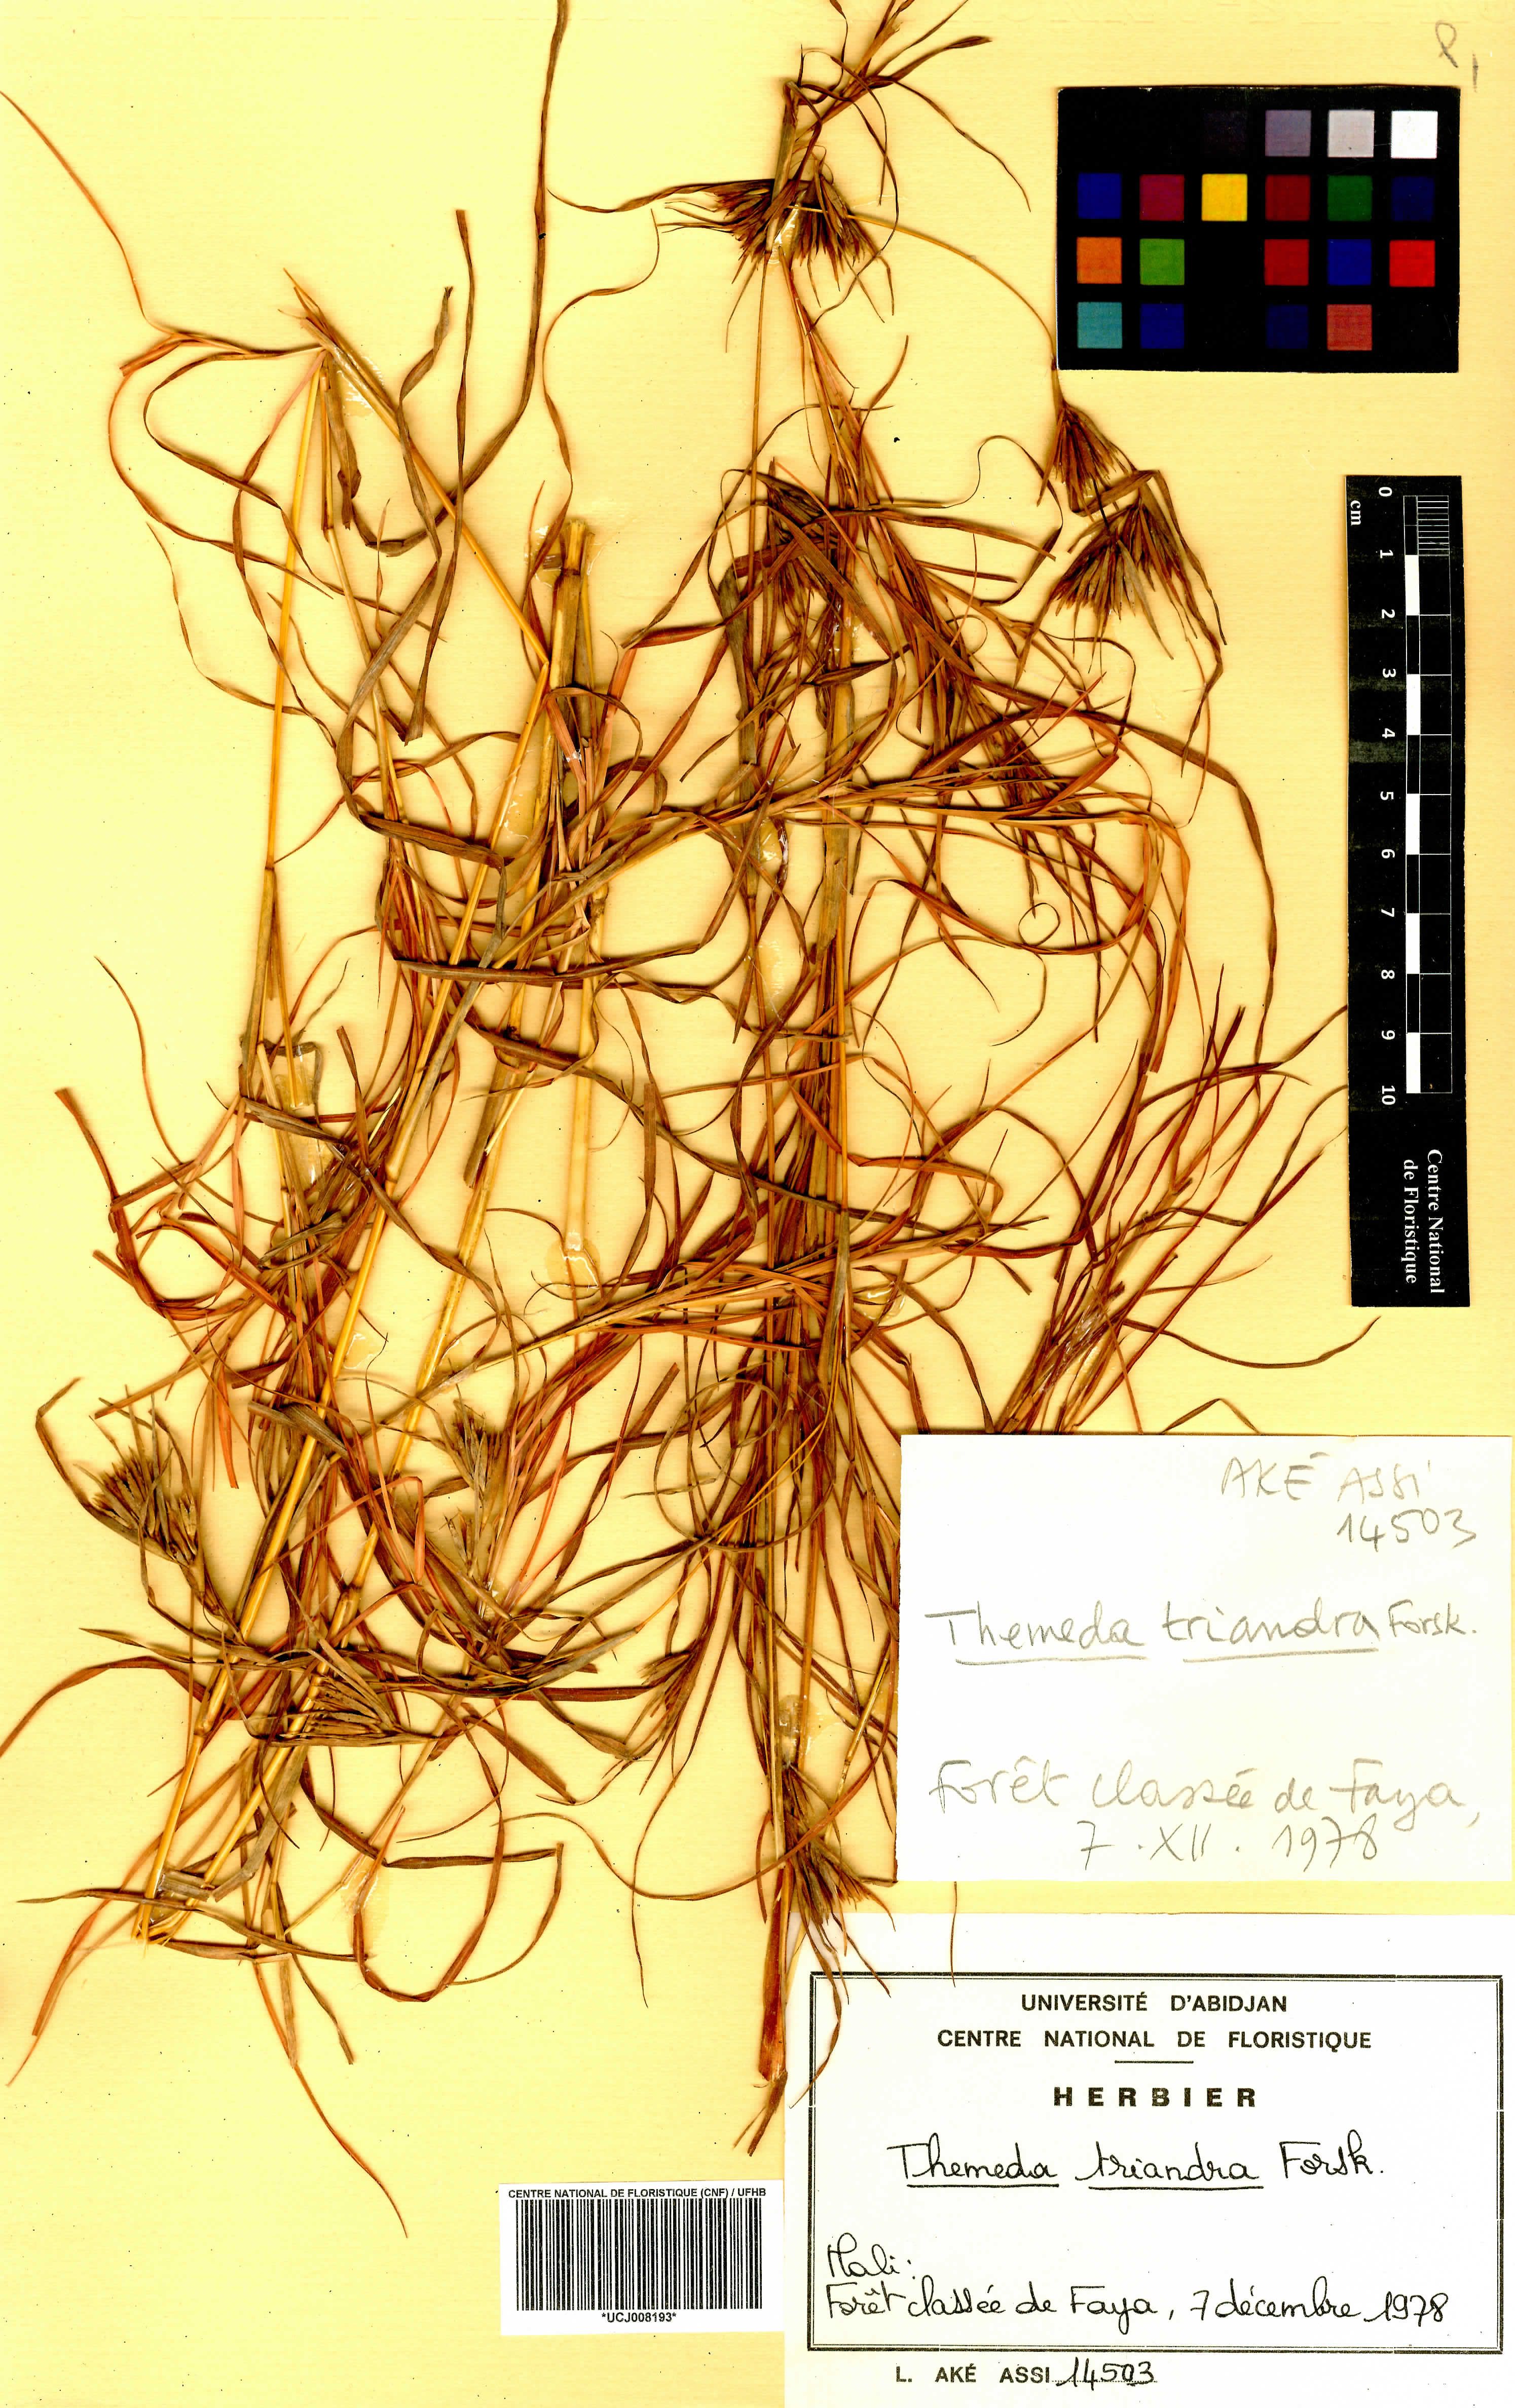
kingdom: Plantae
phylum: Tracheophyta
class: Liliopsida
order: Poales
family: Poaceae
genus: Themeda
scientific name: Themeda triandra
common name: Kangaroo grass
